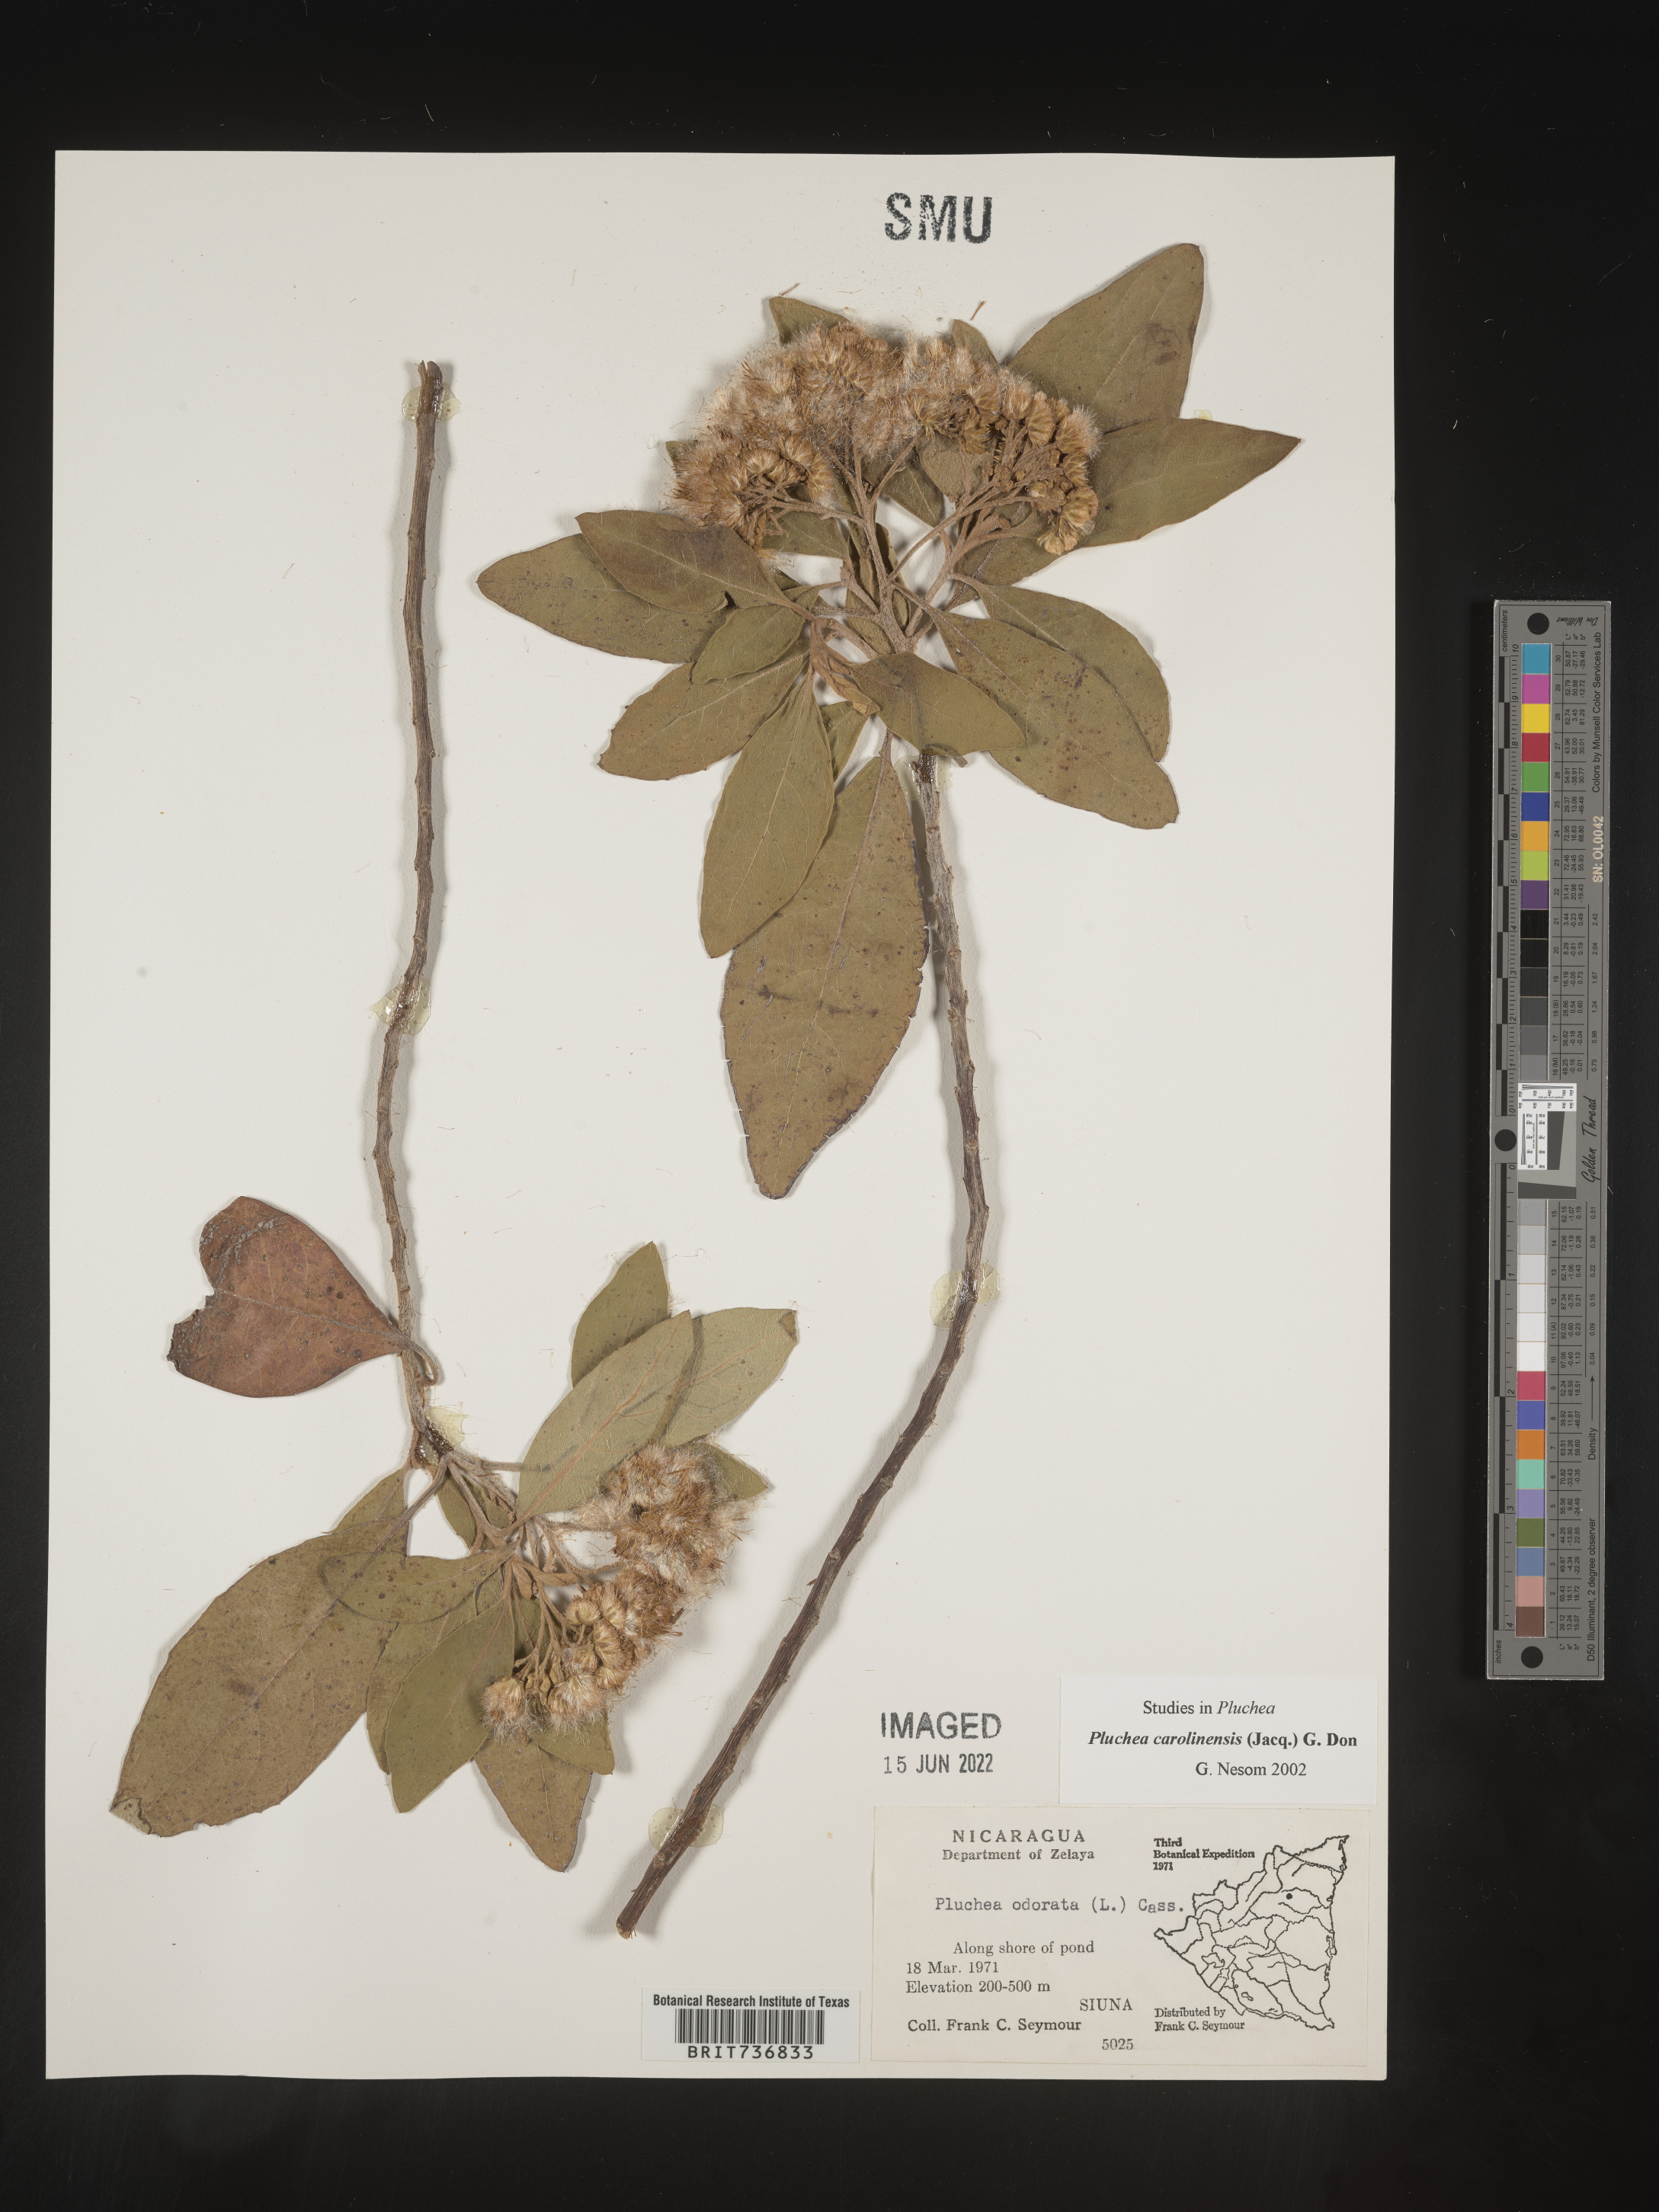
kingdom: Plantae
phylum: Tracheophyta
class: Magnoliopsida
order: Asterales
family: Asteraceae
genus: Pluchea
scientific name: Pluchea
